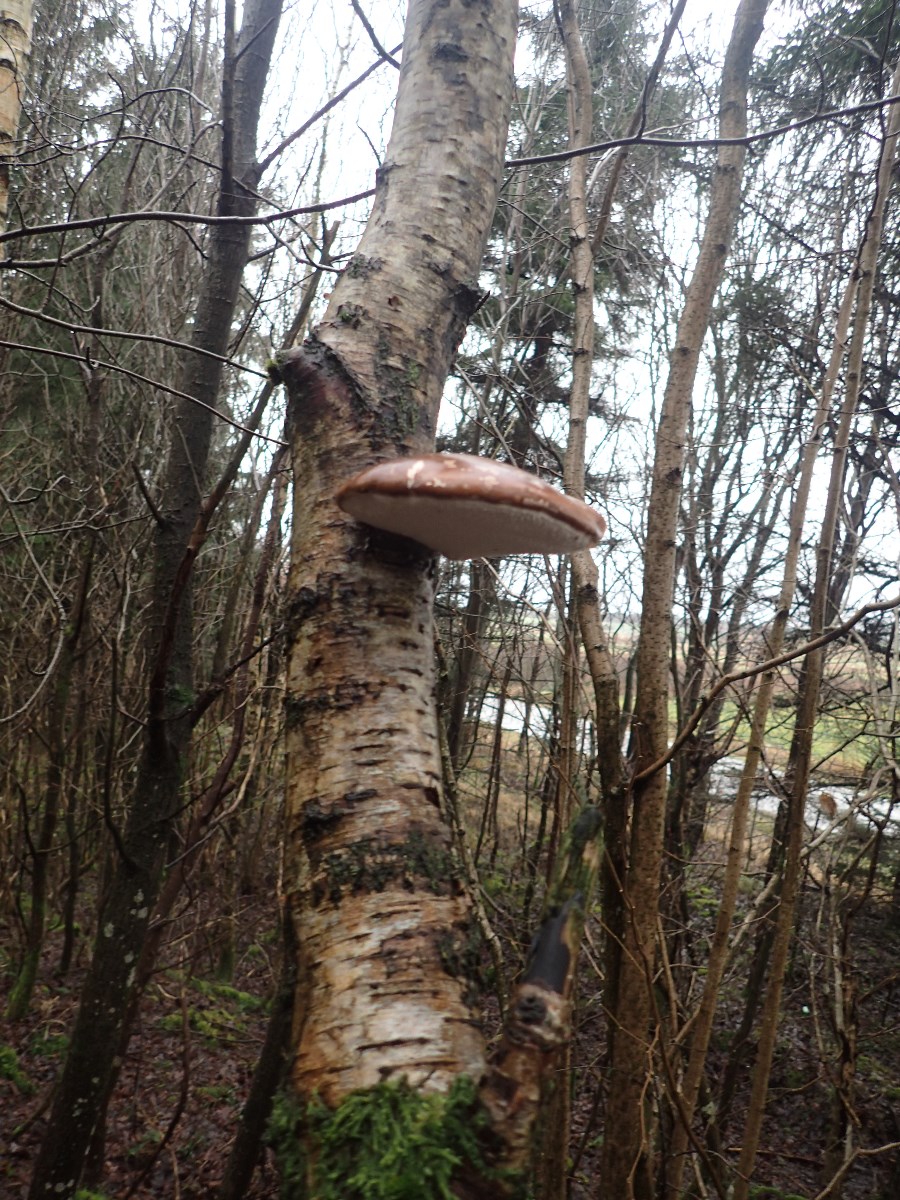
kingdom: Fungi
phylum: Basidiomycota
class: Agaricomycetes
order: Polyporales
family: Fomitopsidaceae
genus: Fomitopsis
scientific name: Fomitopsis betulina
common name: birkeporesvamp
